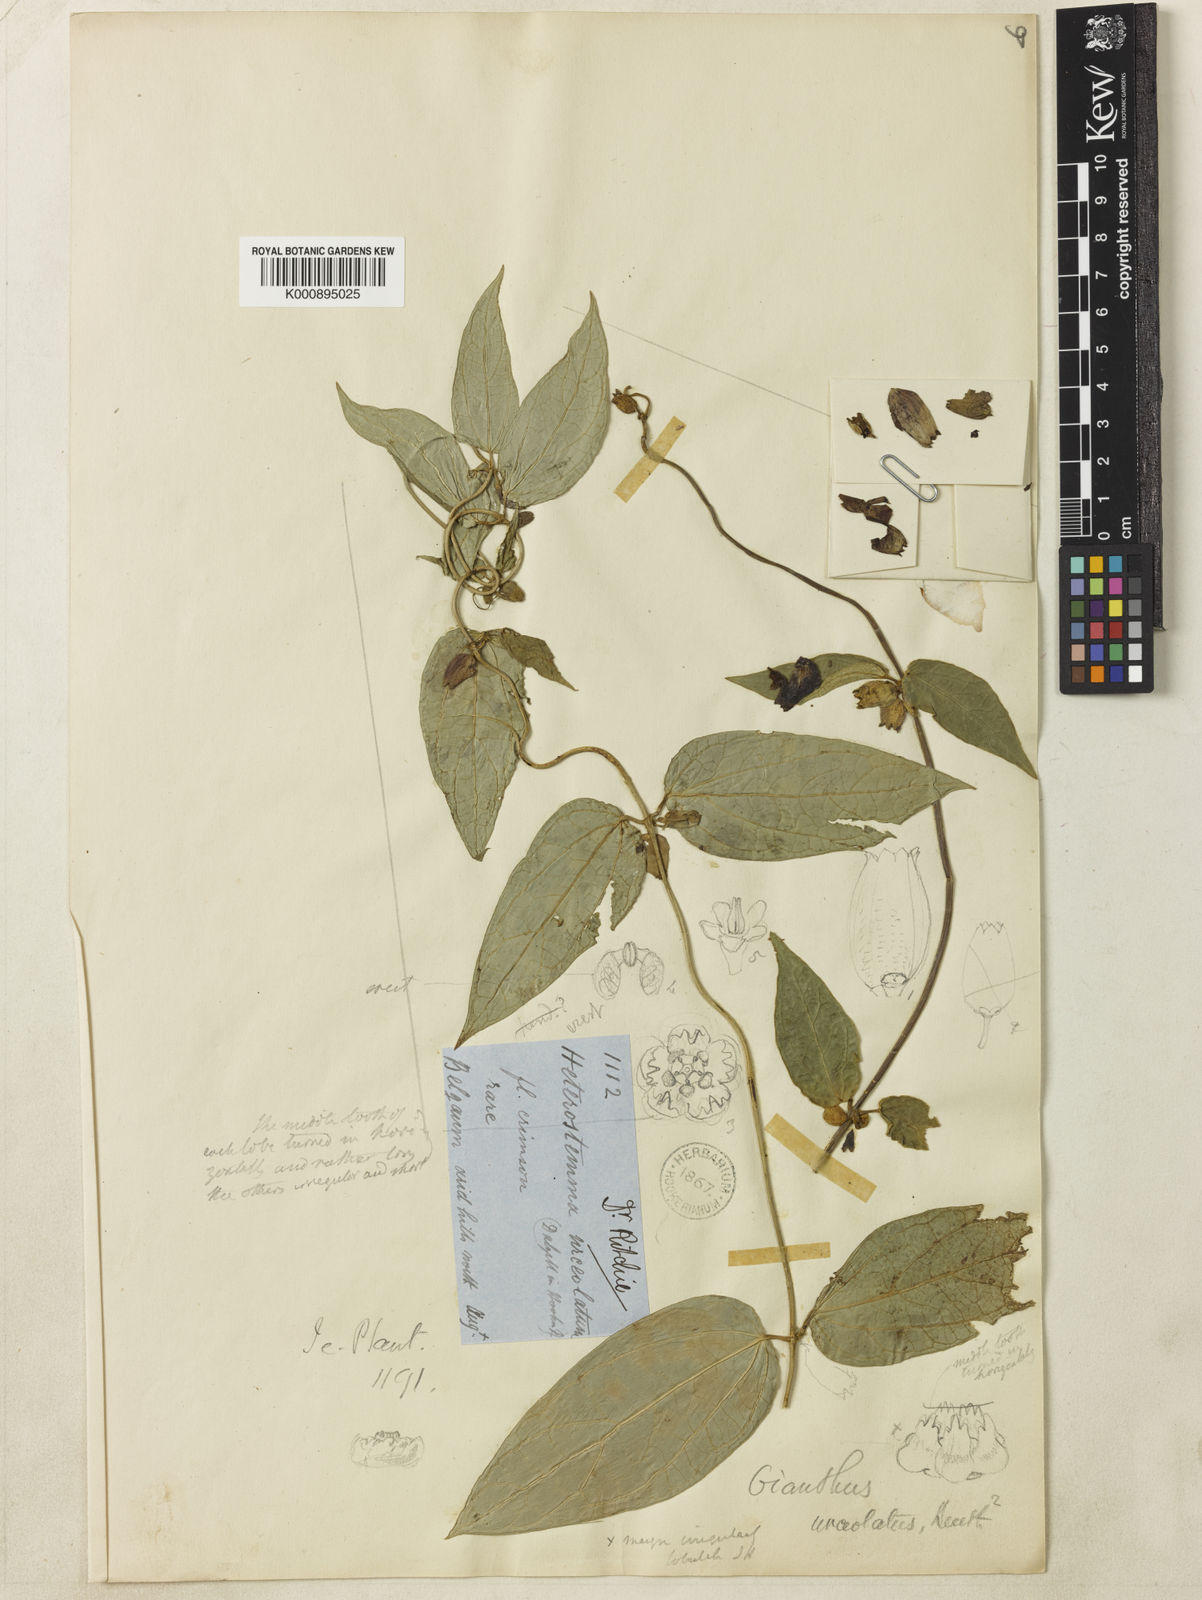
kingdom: Plantae
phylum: Tracheophyta
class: Magnoliopsida
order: Gentianales
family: Apocynaceae
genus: Heterostemma
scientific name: Heterostemma urceolatum
